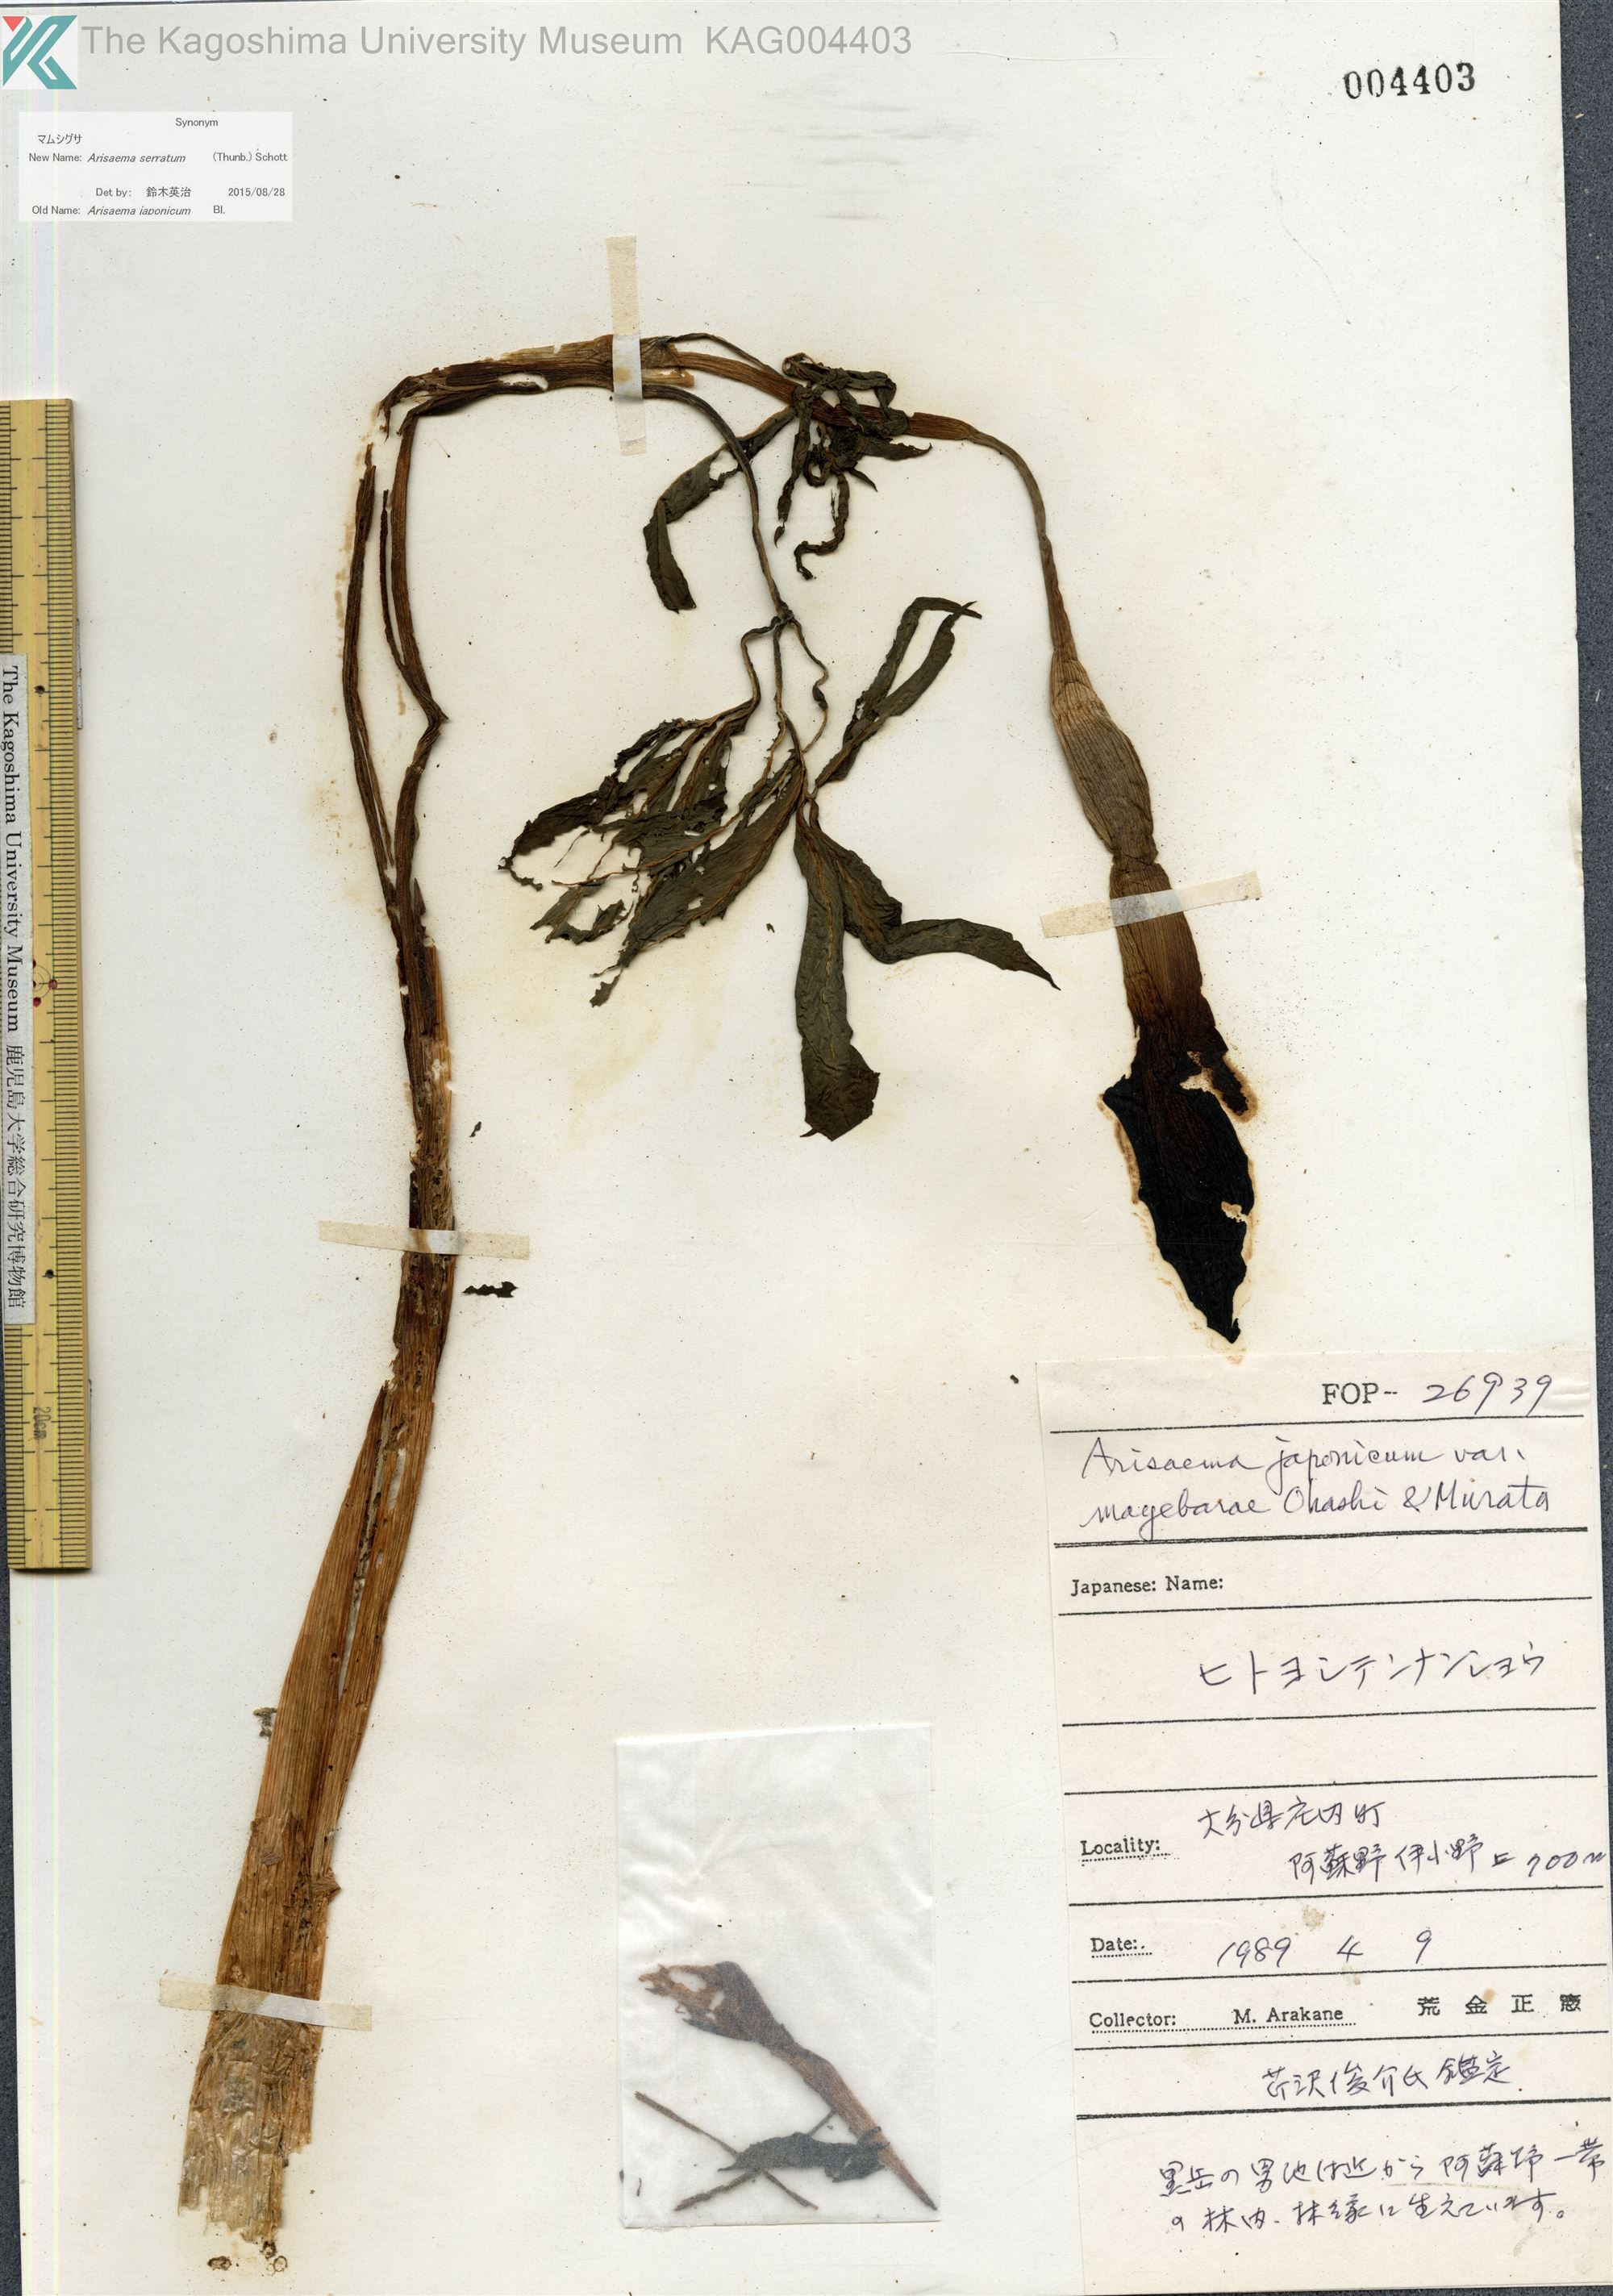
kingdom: Plantae
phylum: Tracheophyta
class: Liliopsida
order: Alismatales
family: Araceae
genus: Arisaema
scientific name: Arisaema mayebarae
